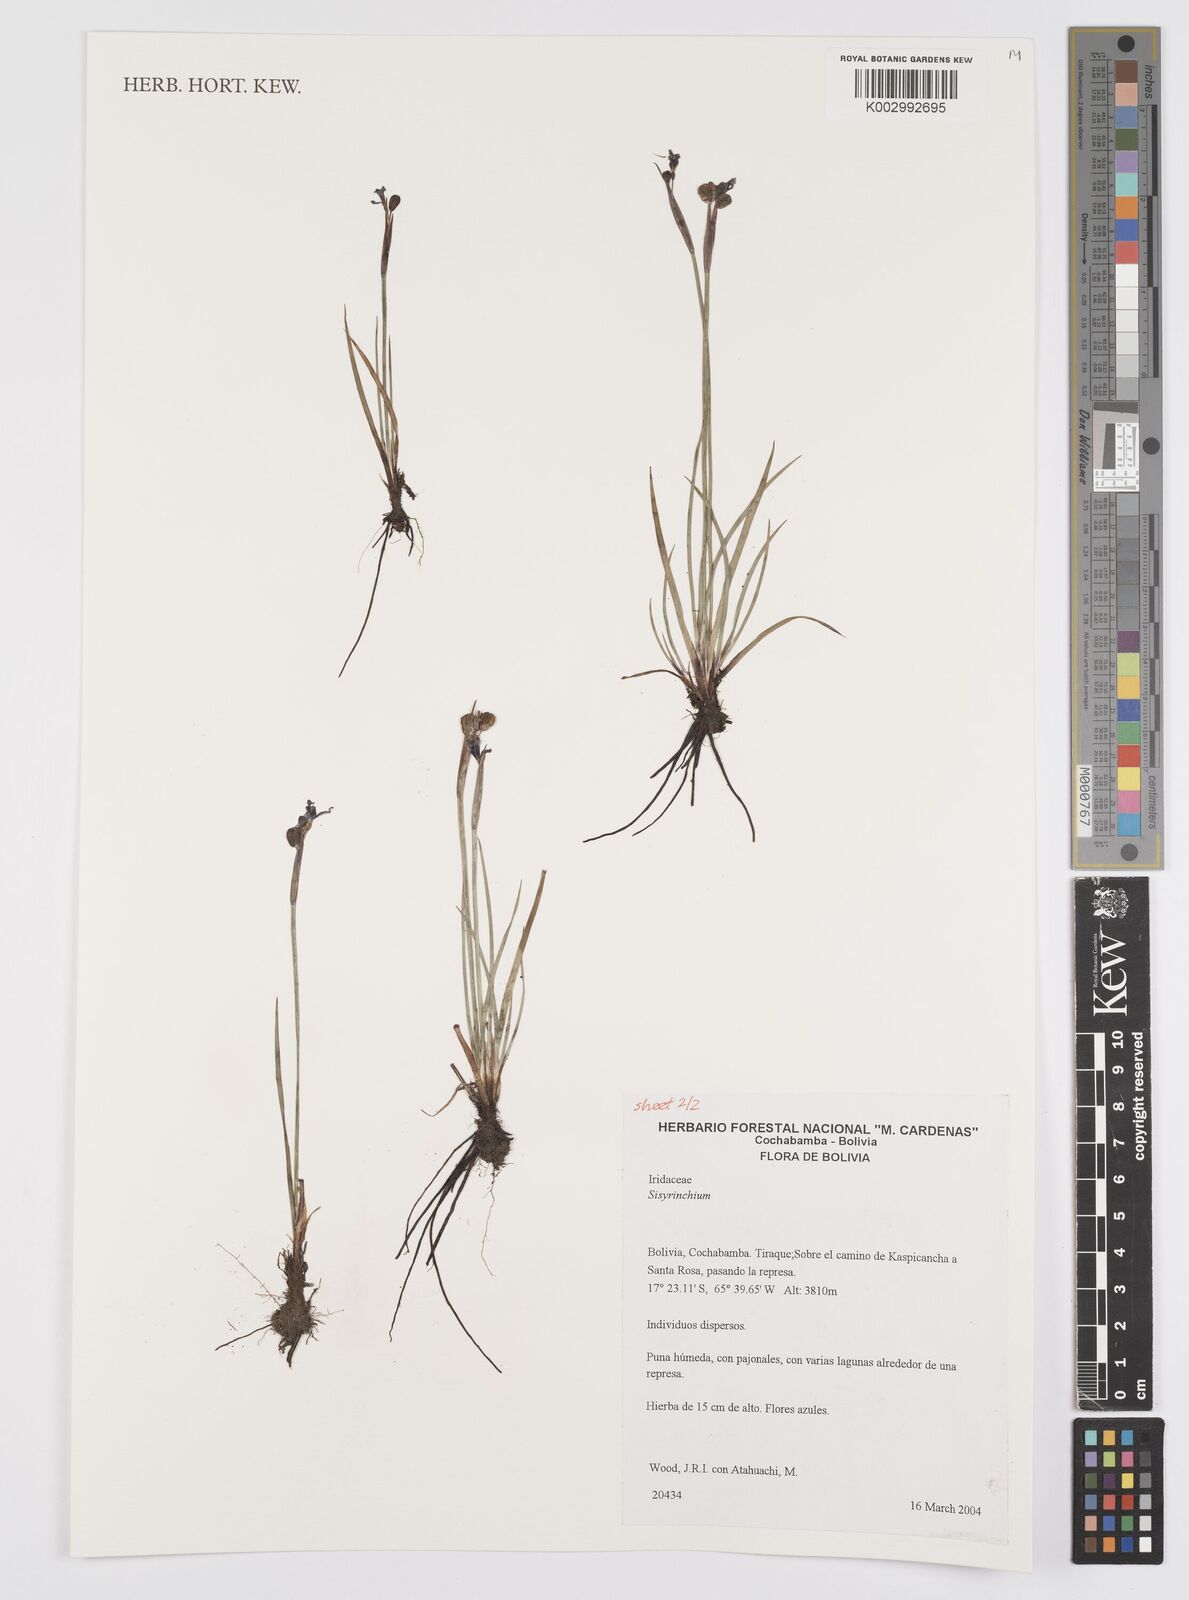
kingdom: Plantae
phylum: Tracheophyta
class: Liliopsida
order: Asparagales
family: Iridaceae
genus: Sisyrinchium
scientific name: Sisyrinchium
